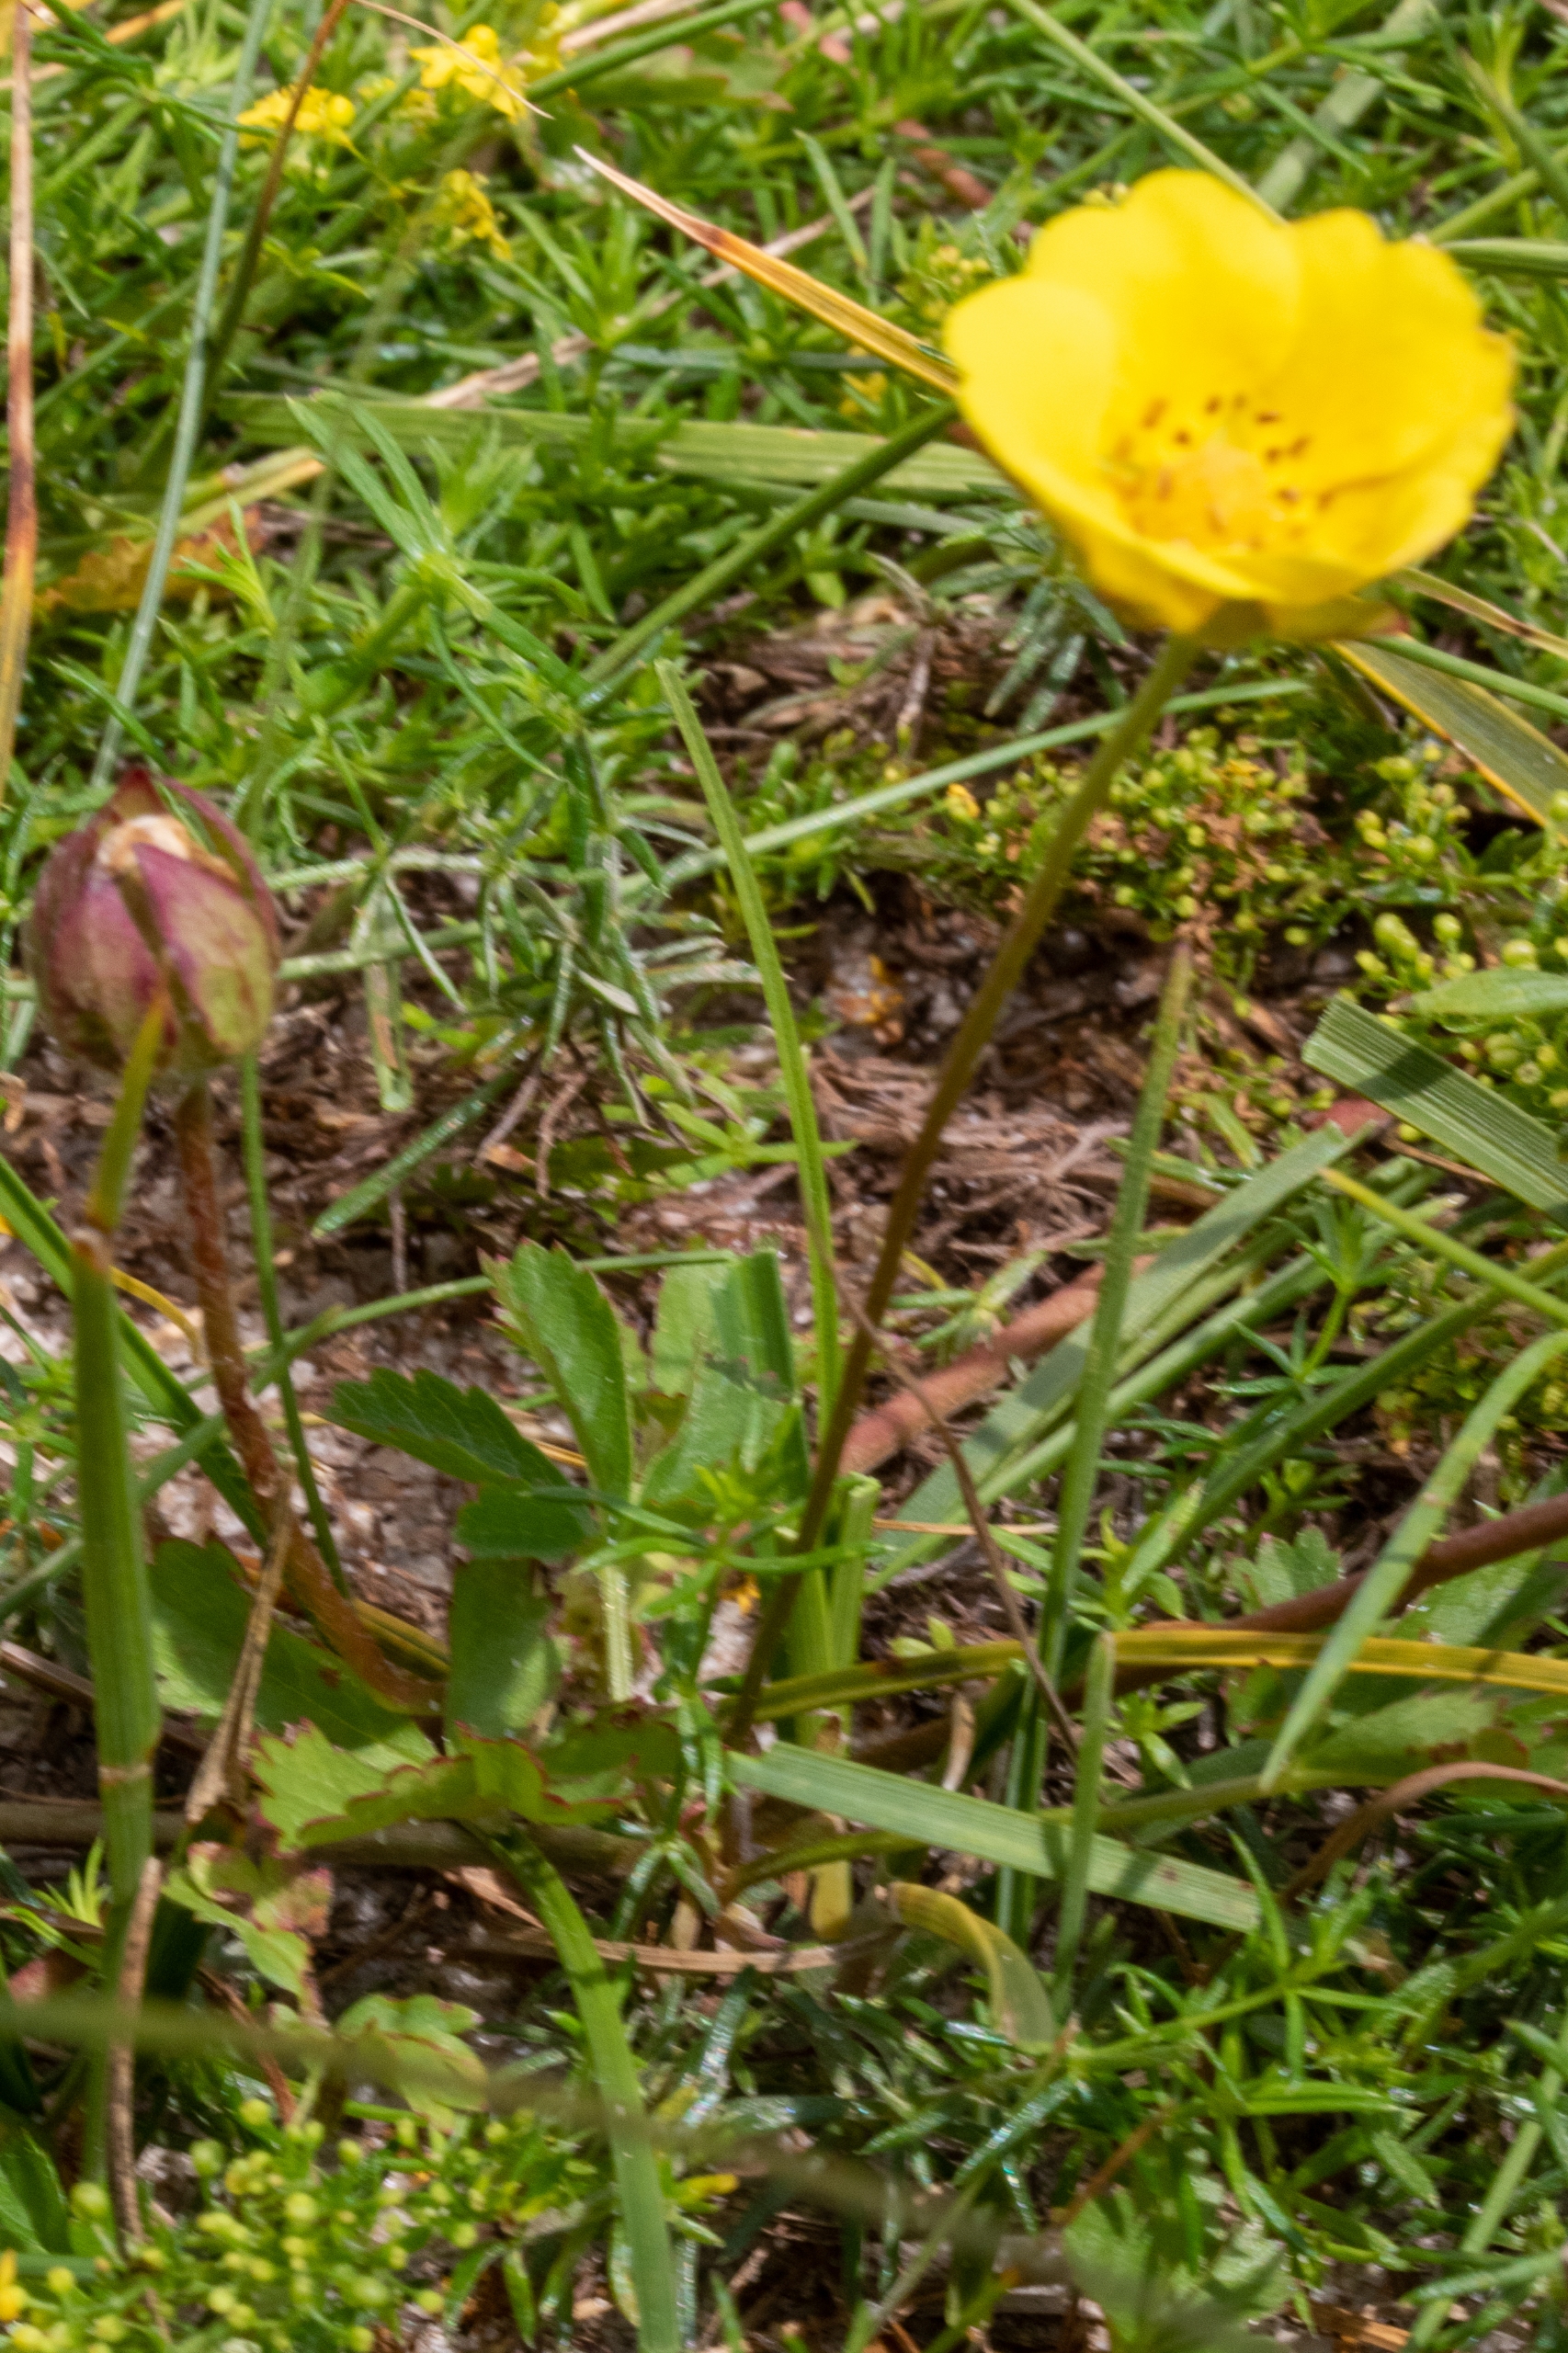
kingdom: Plantae
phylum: Tracheophyta
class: Magnoliopsida
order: Rosales
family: Rosaceae
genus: Potentilla
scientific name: Potentilla reptans
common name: Krybende potentil
